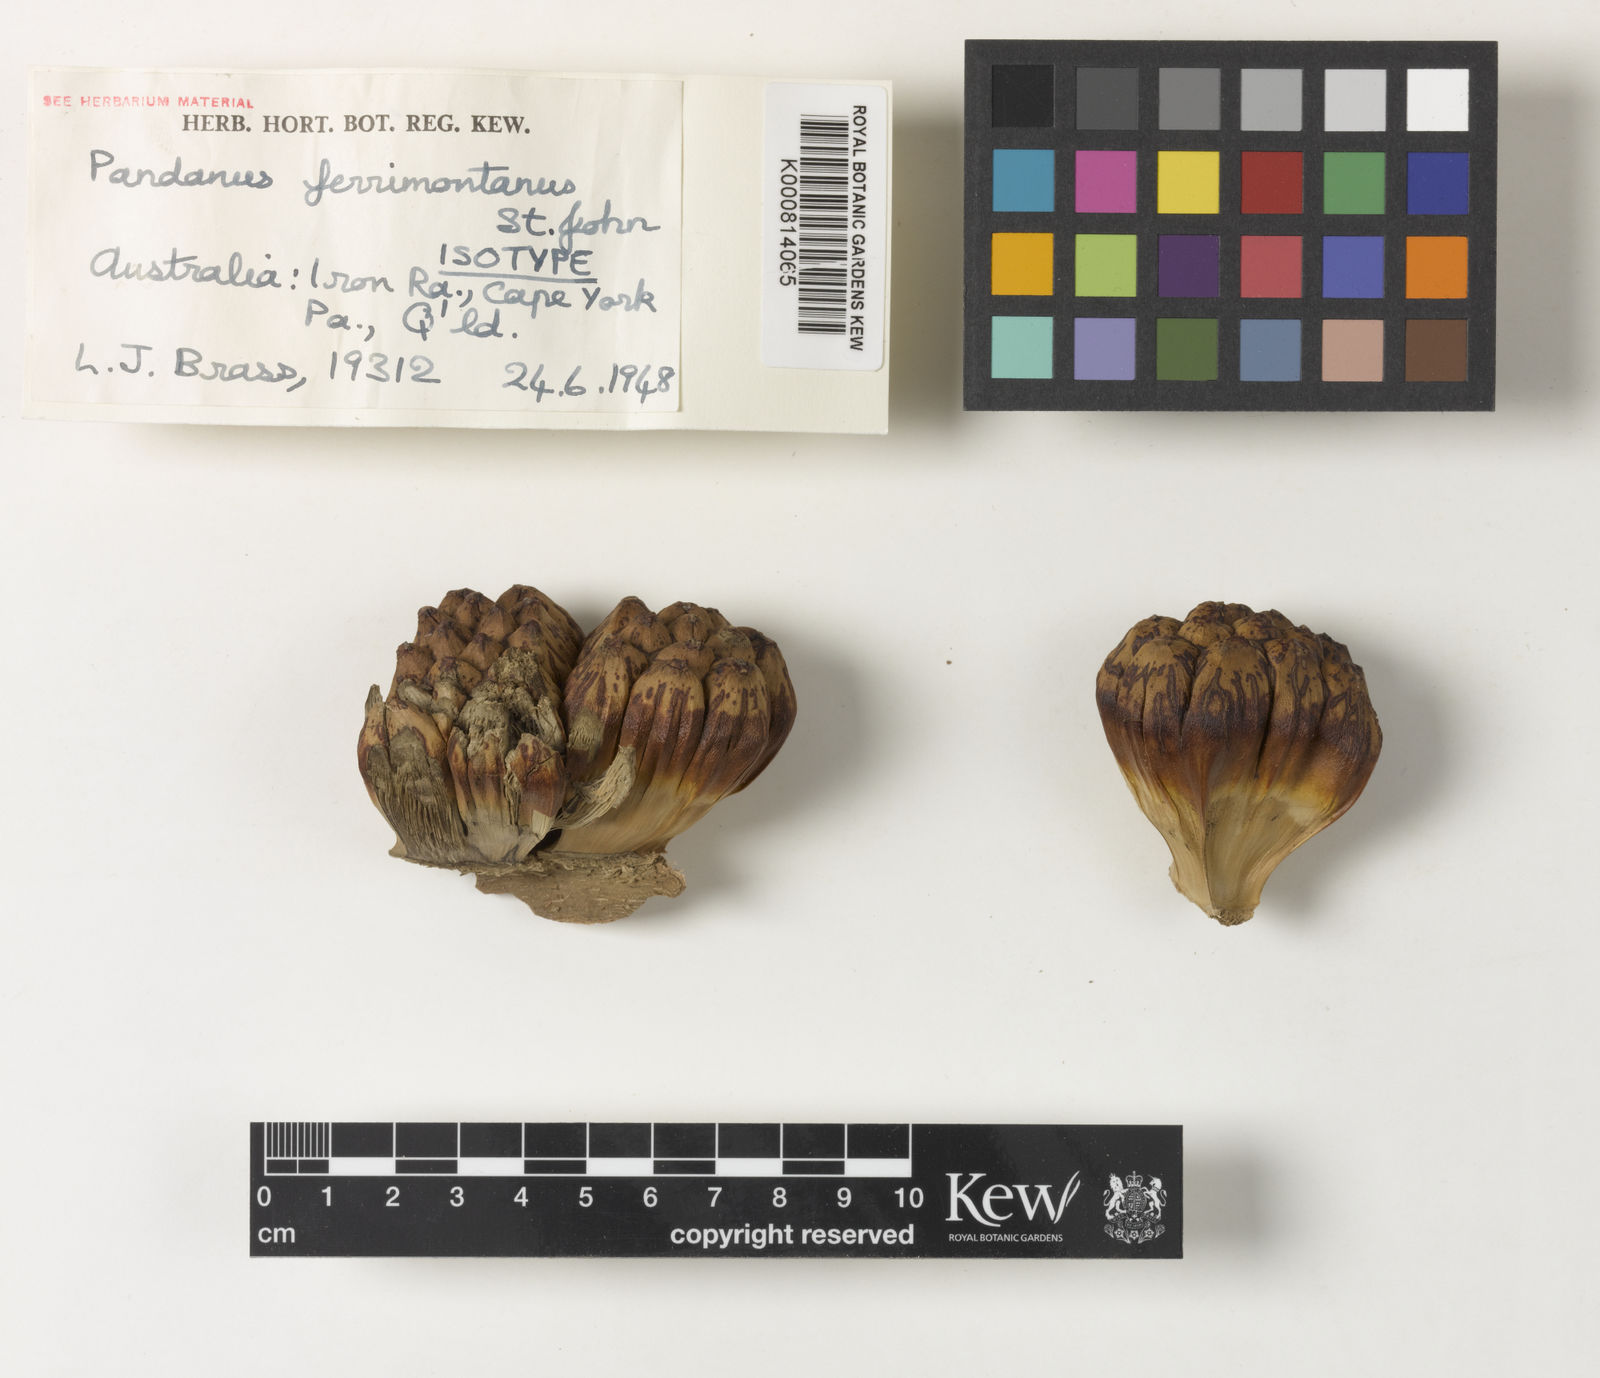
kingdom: Plantae
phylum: Tracheophyta
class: Liliopsida
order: Pandanales
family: Pandanaceae
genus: Pandanus
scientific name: Pandanus cookii
